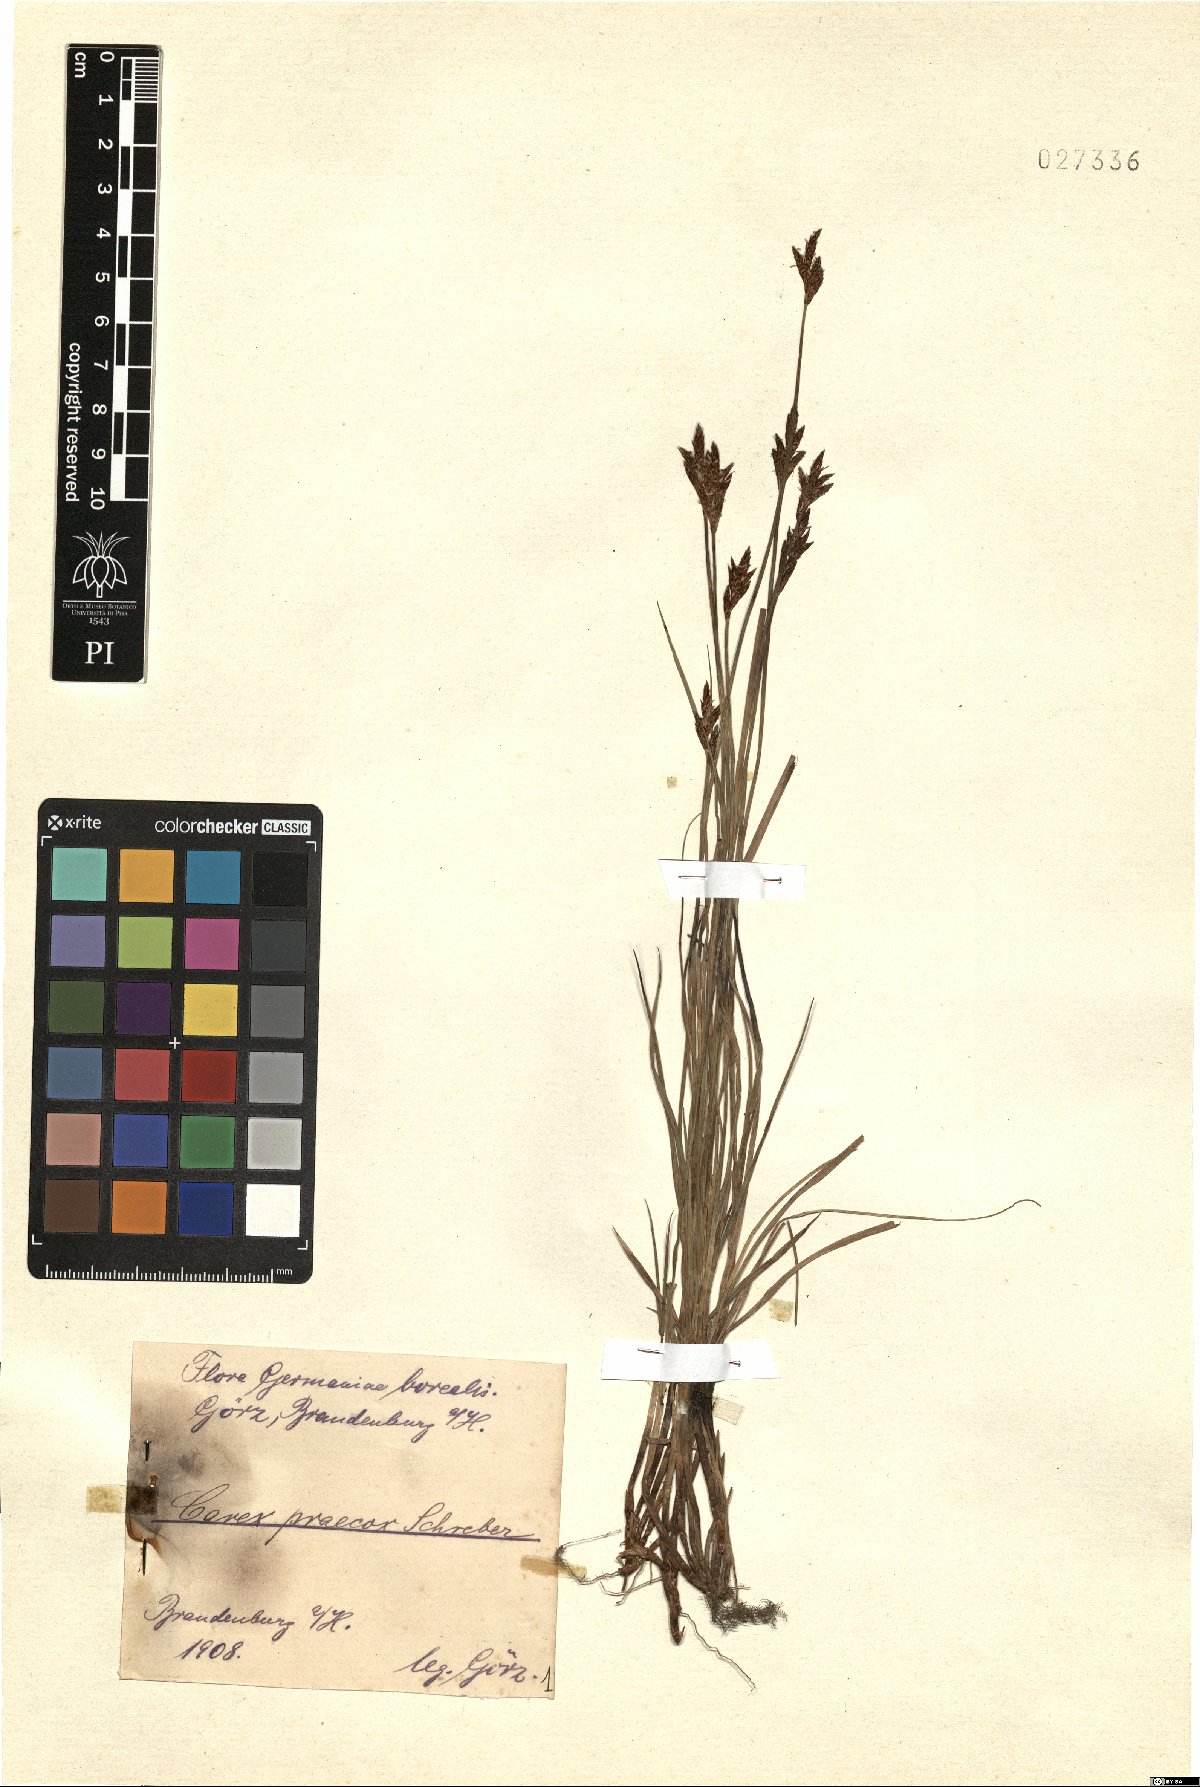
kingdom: Plantae
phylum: Tracheophyta
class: Liliopsida
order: Poales
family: Cyperaceae
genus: Carex
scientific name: Carex praecox
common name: Early sedge
